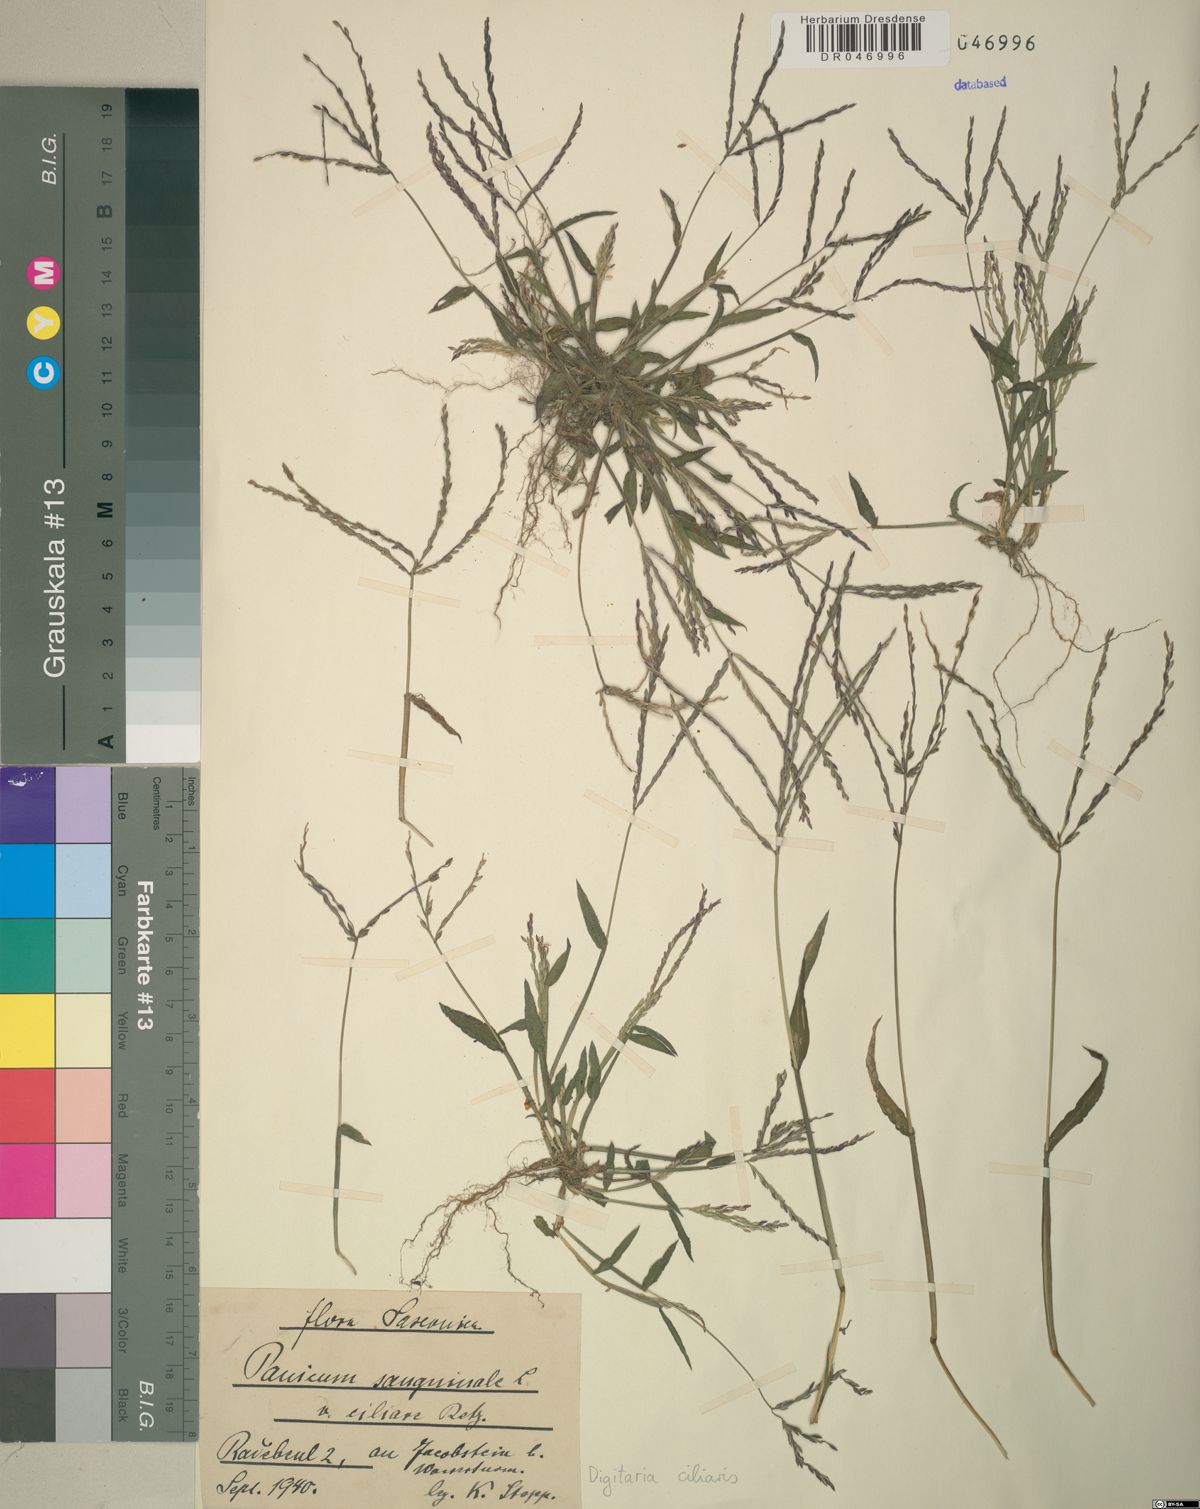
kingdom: Plantae
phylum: Tracheophyta
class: Liliopsida
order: Poales
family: Poaceae
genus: Digitaria
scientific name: Digitaria ciliaris
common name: Tropical finger-grass
